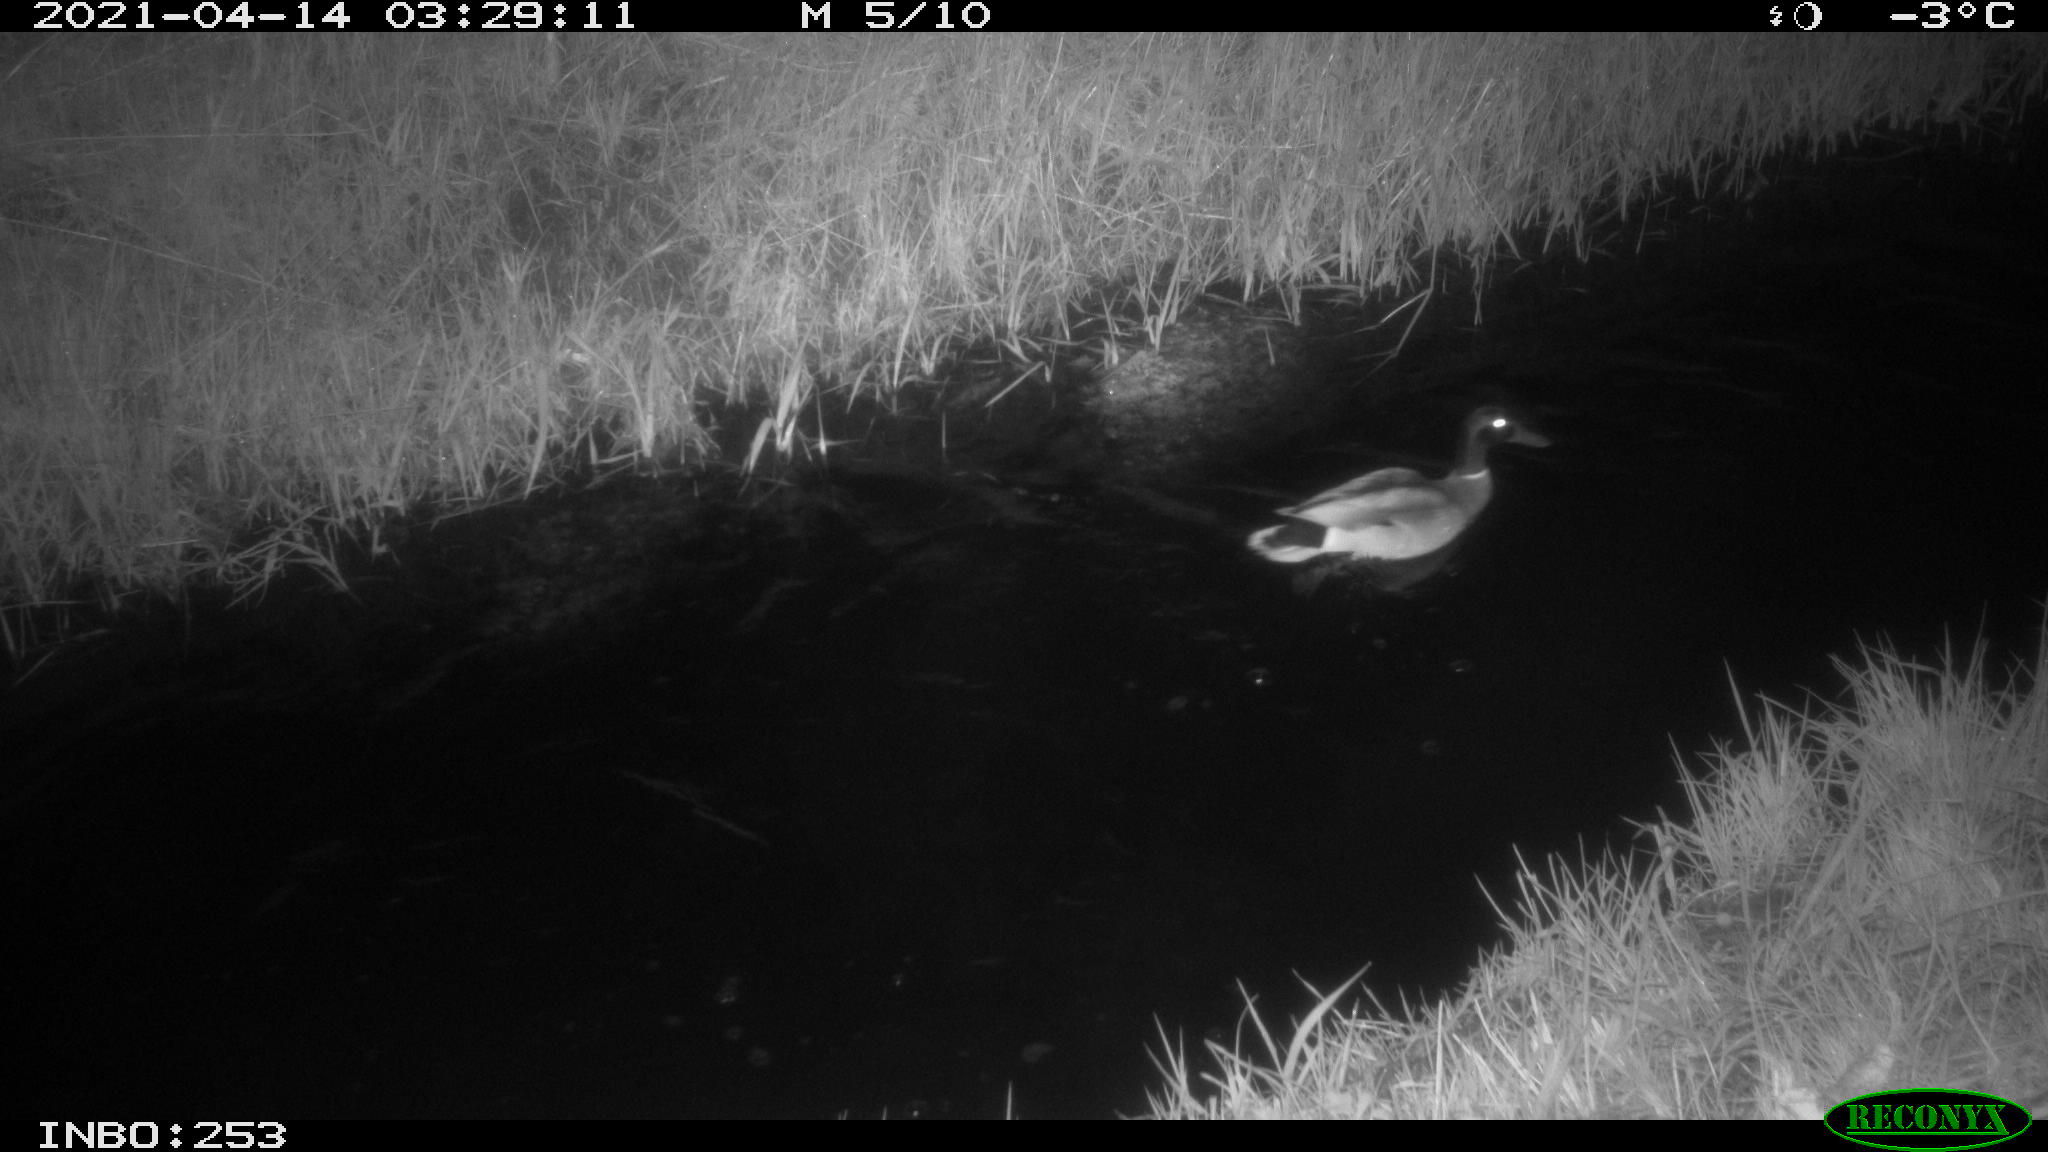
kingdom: Animalia
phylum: Chordata
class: Aves
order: Anseriformes
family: Anatidae
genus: Anas
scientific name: Anas platyrhynchos
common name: Mallard
